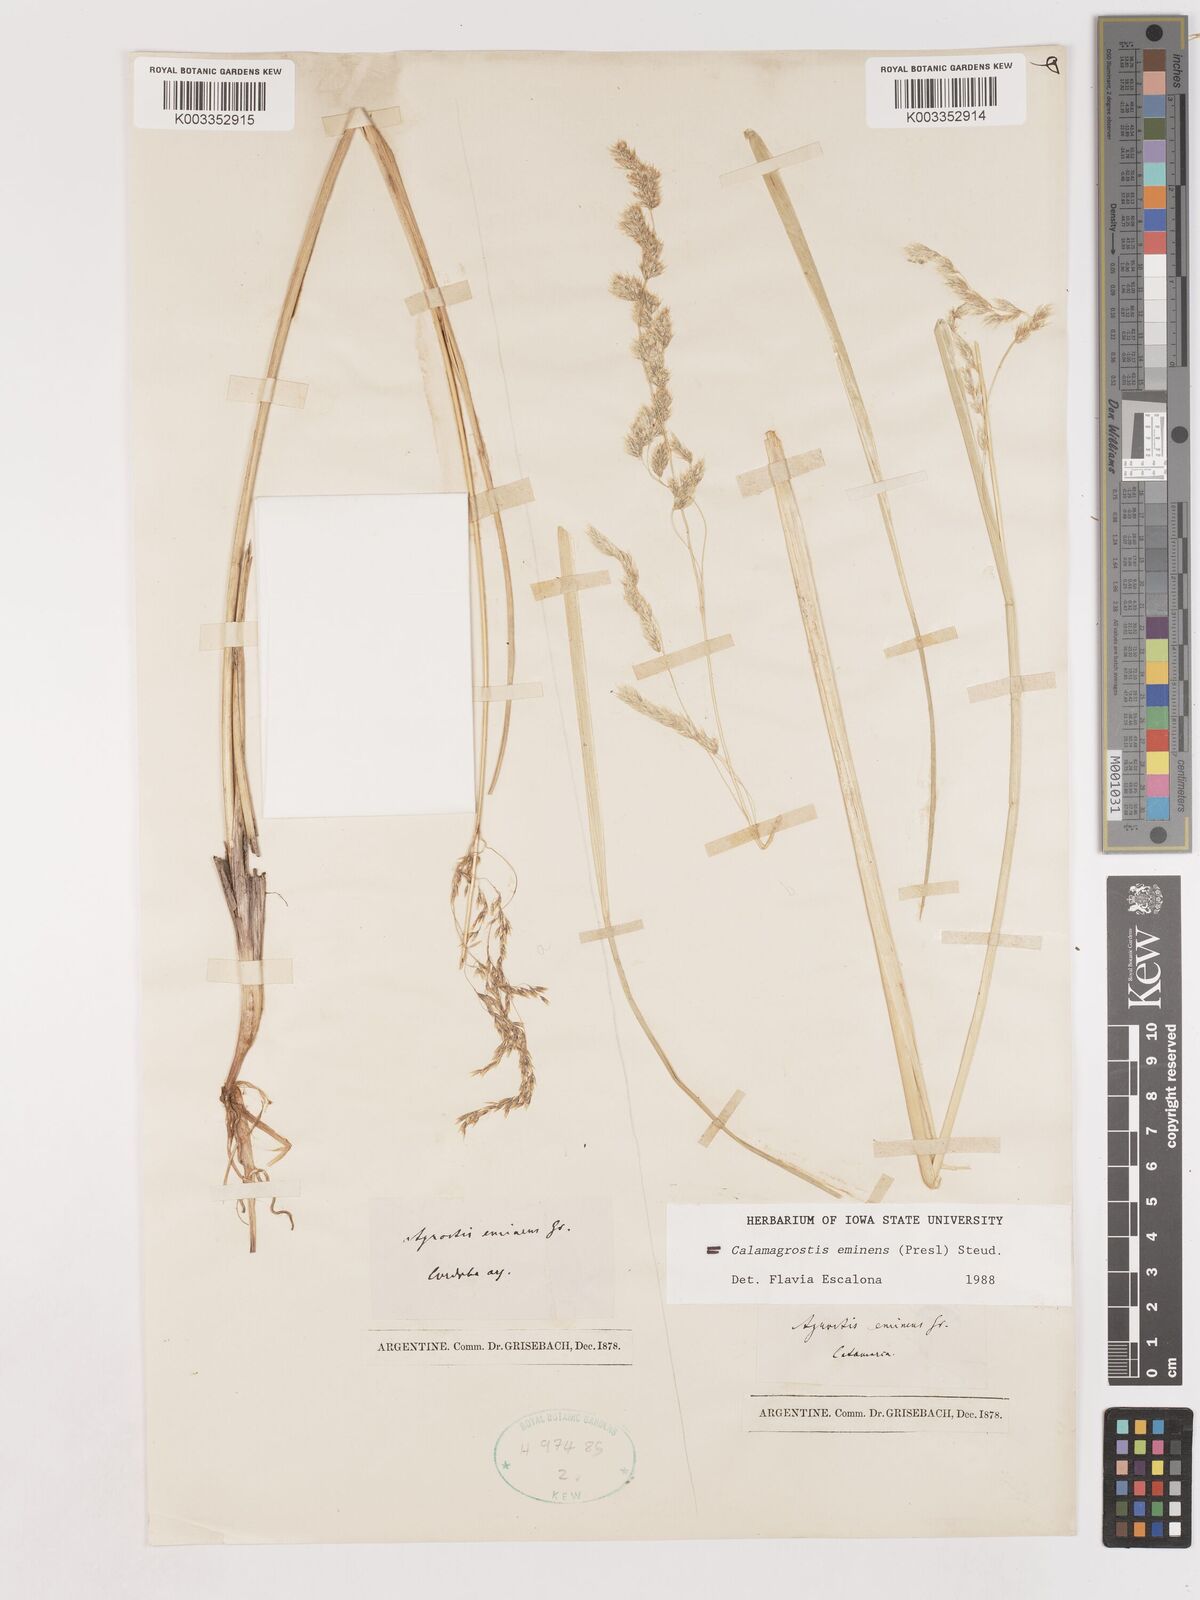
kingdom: Plantae
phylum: Tracheophyta
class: Liliopsida
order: Poales
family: Poaceae
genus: Deschampsia
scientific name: Deschampsia eminens
